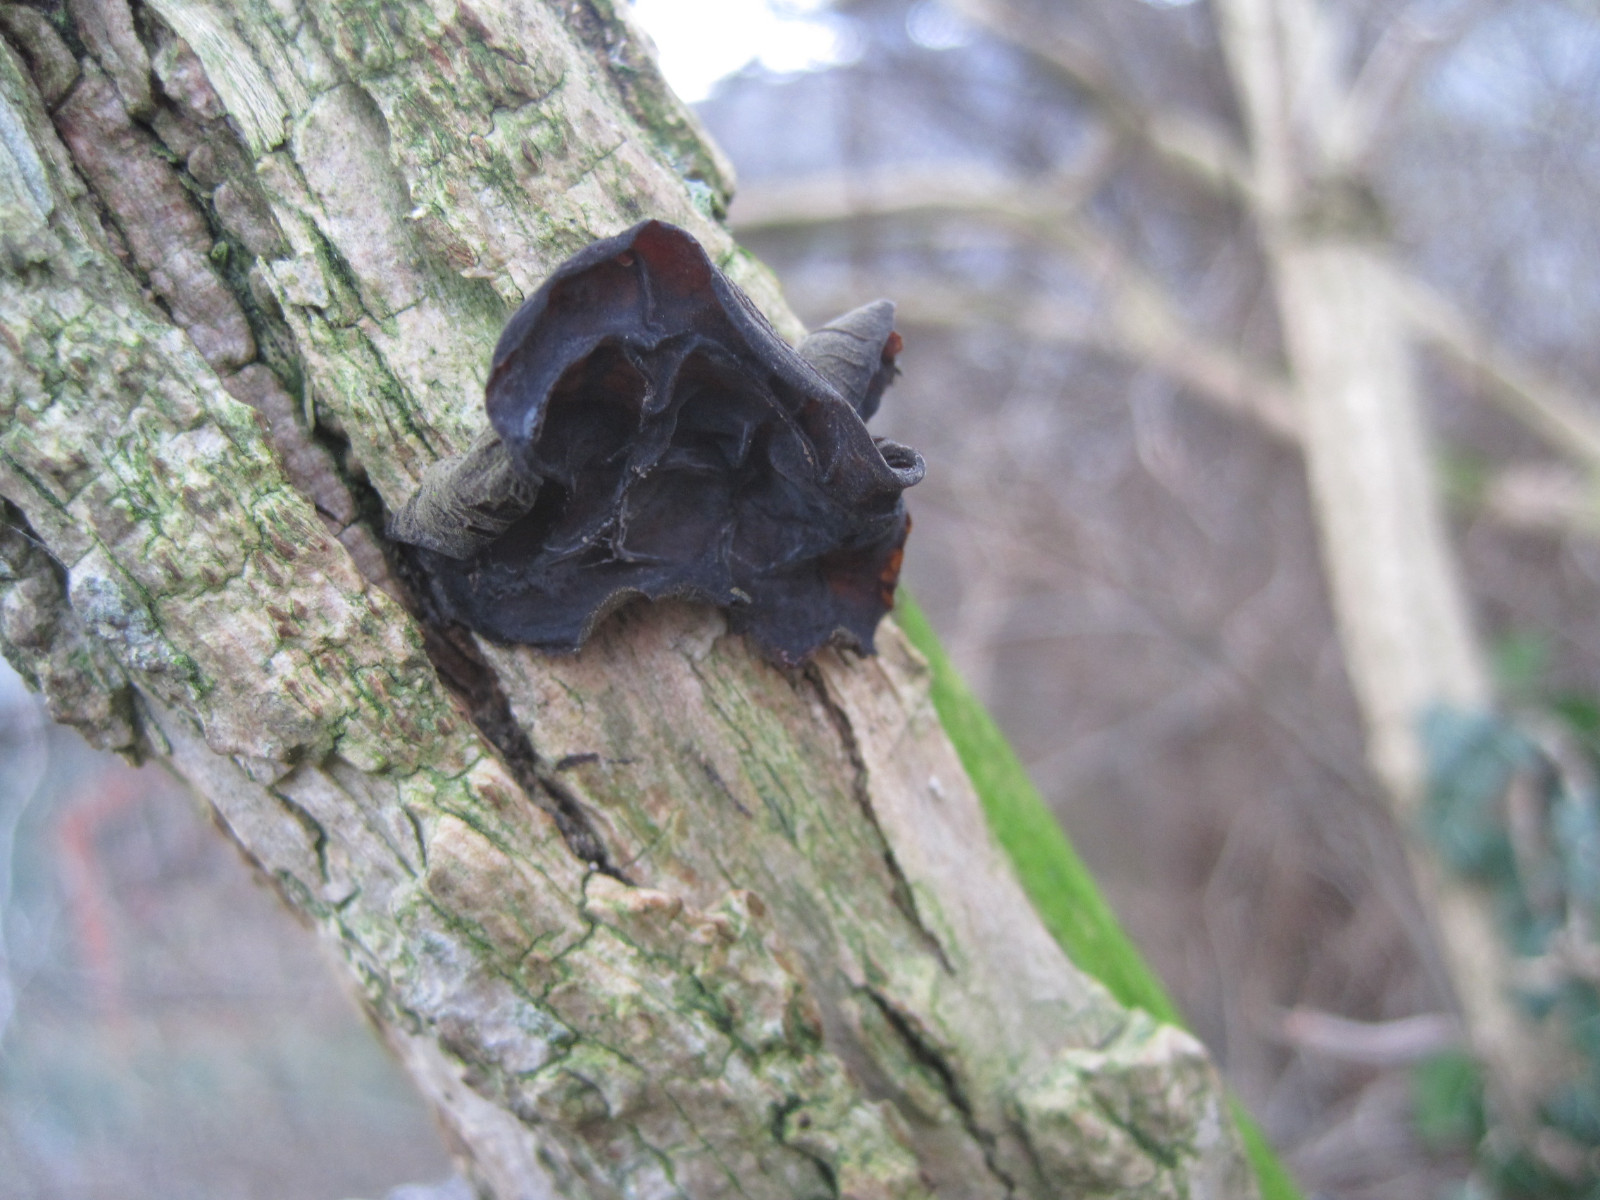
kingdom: Fungi
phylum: Basidiomycota
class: Agaricomycetes
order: Auriculariales
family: Auriculariaceae
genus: Auricularia
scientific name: Auricularia auricula-judae
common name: almindelig judasøre
